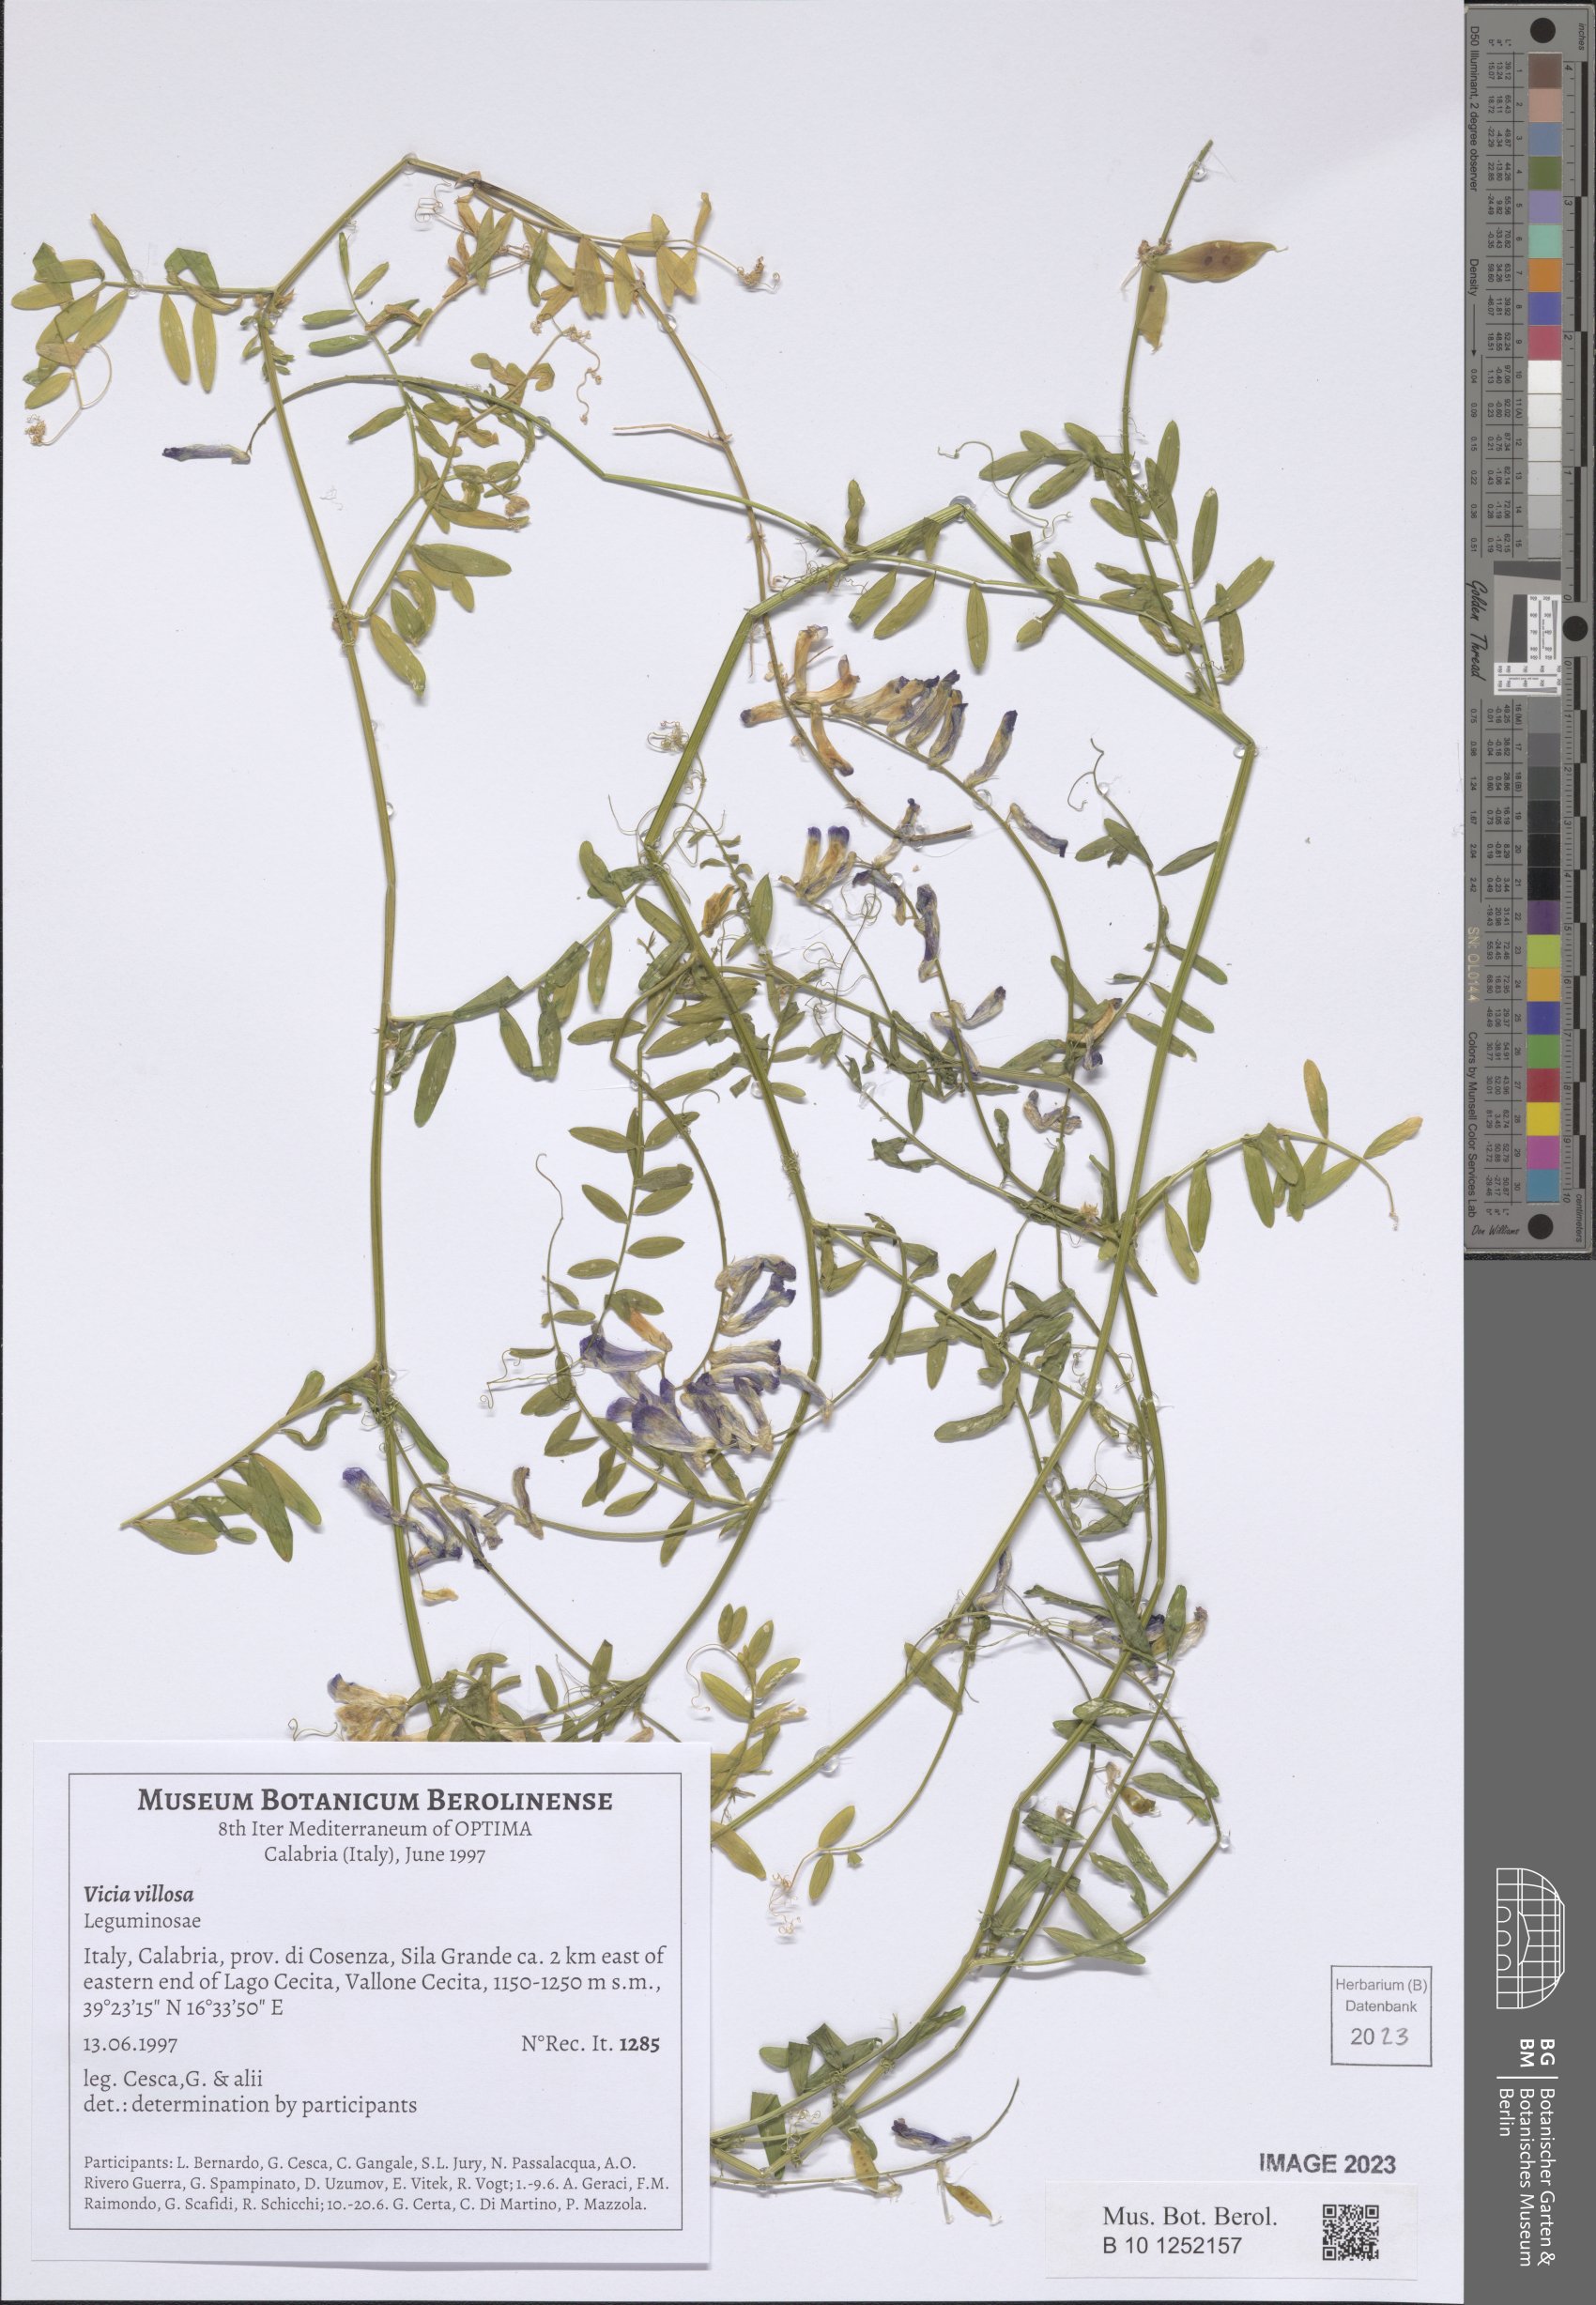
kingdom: Plantae
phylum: Tracheophyta
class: Magnoliopsida
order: Fabales
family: Fabaceae
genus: Vicia
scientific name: Vicia villosa
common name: Fodder vetch
